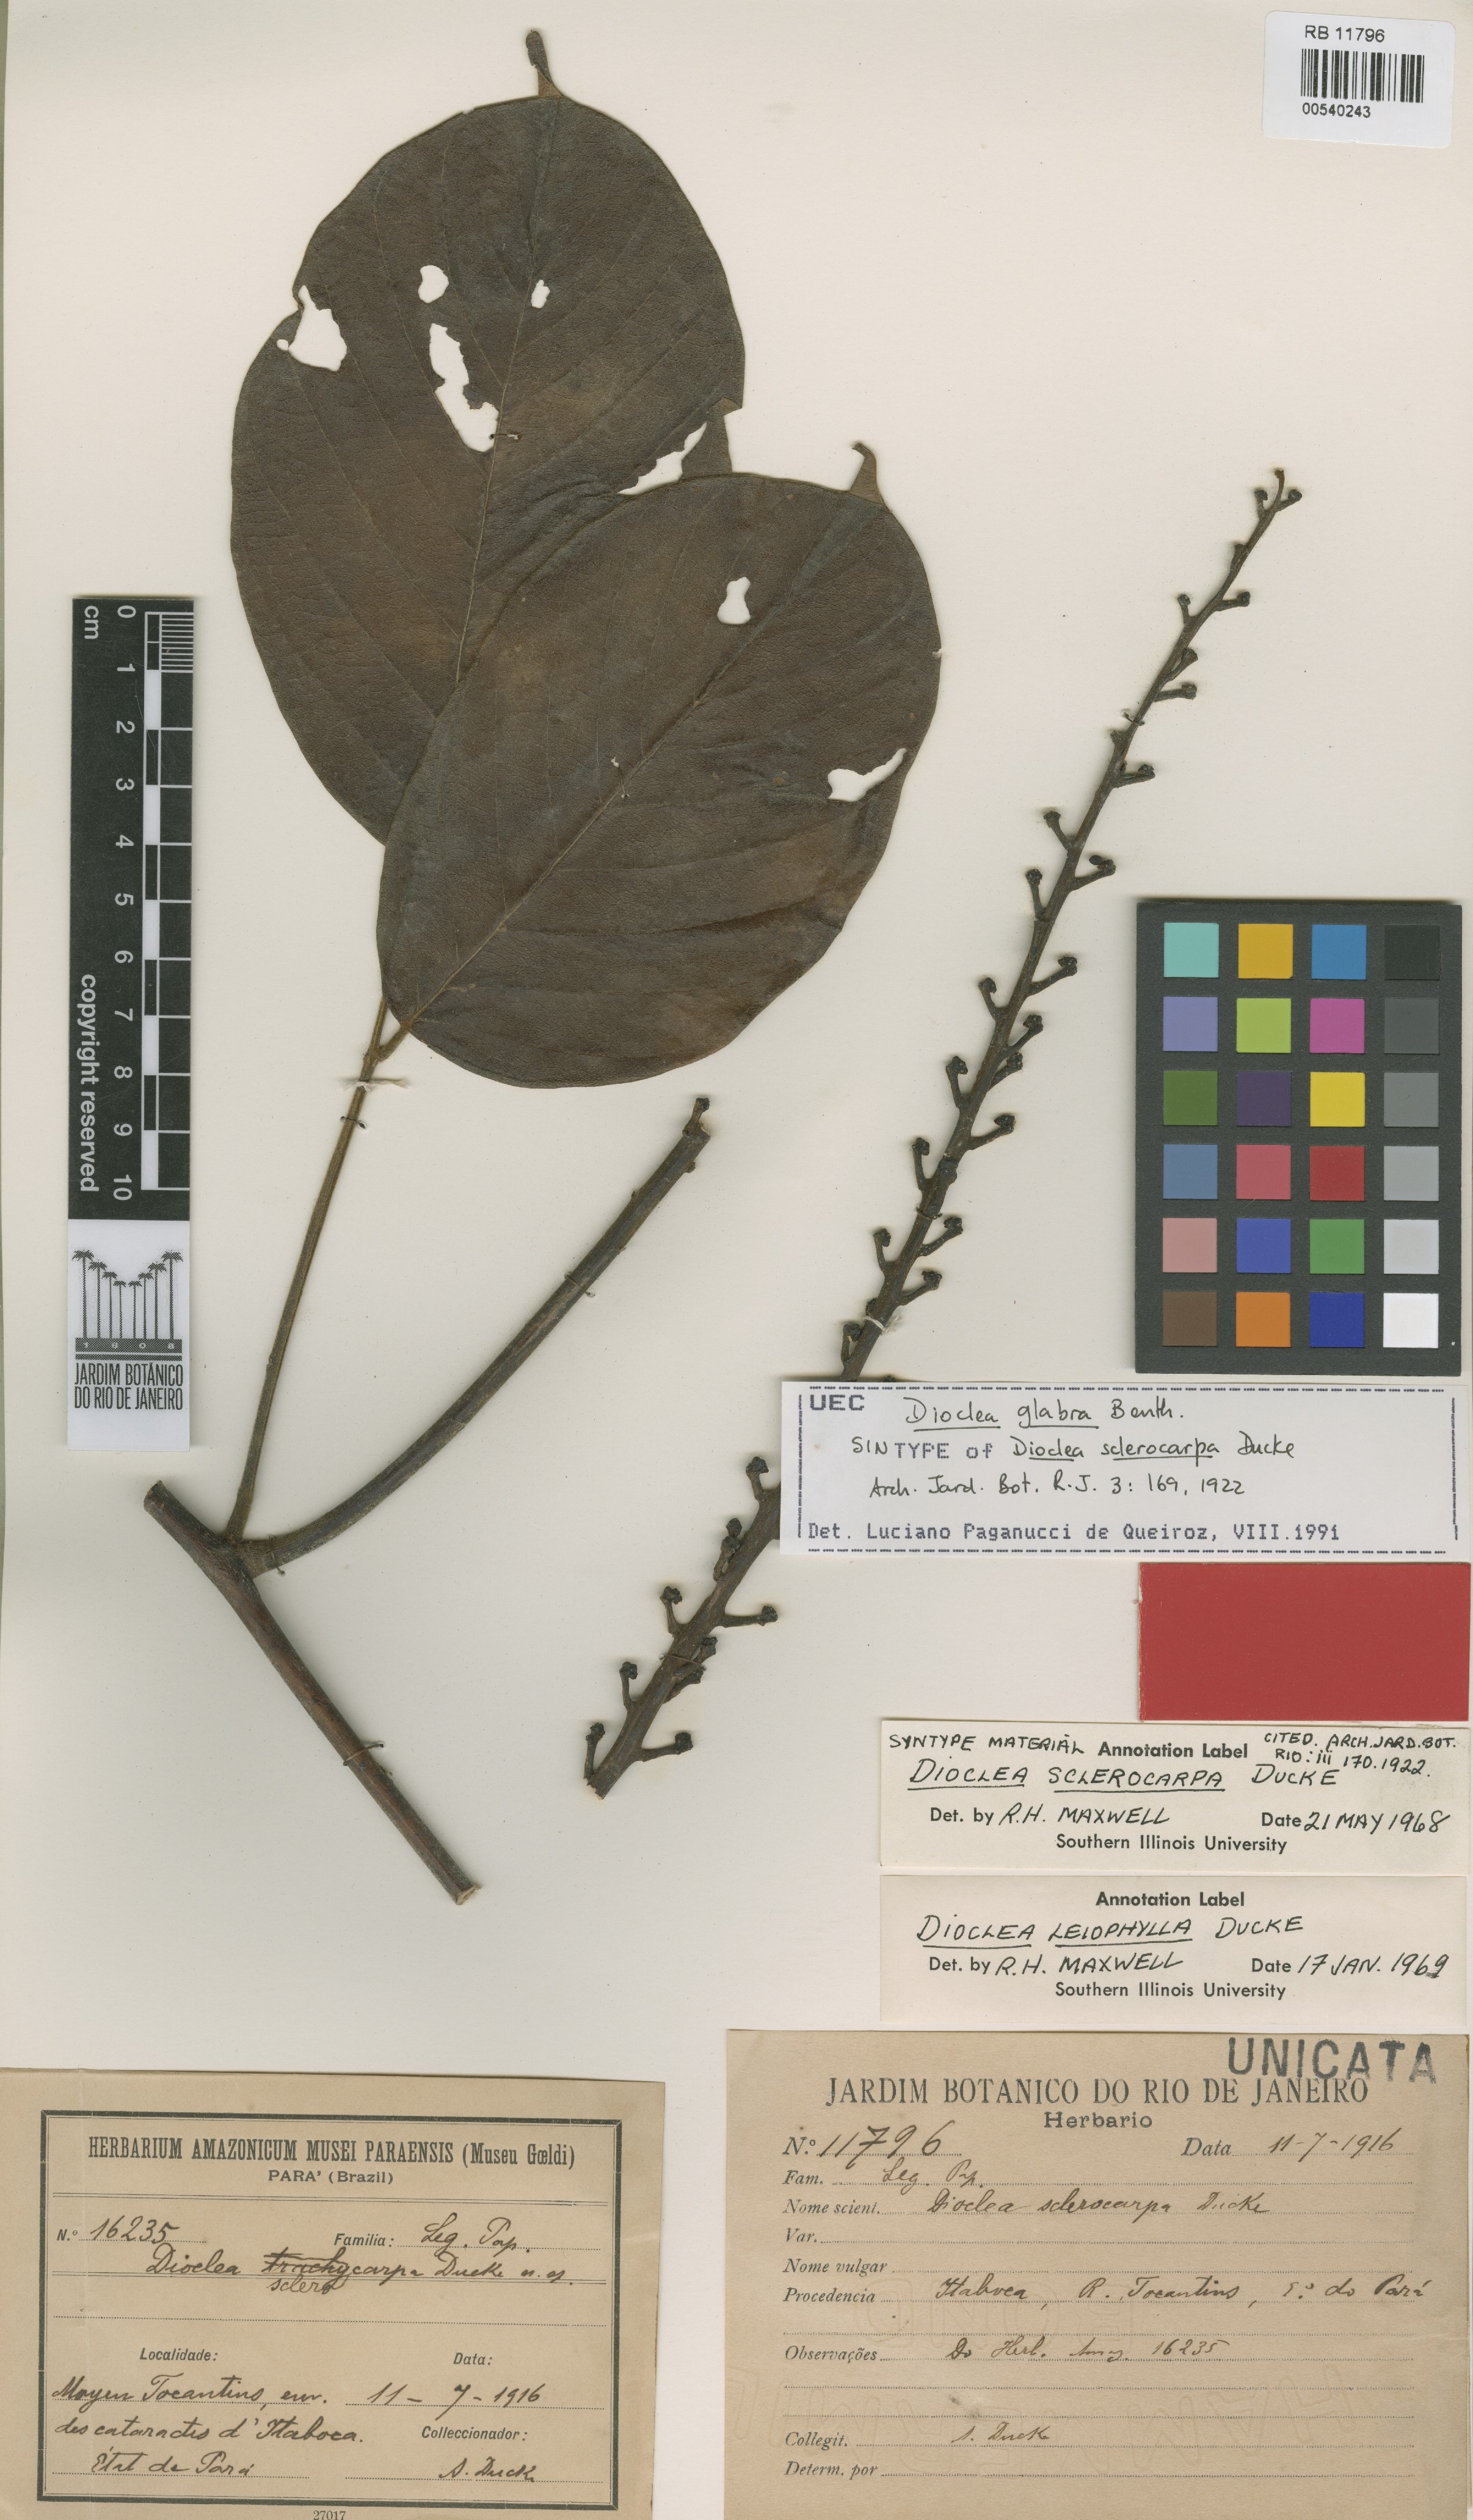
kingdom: Plantae
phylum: Tracheophyta
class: Magnoliopsida
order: Fabales
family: Fabaceae
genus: Macropsychanthus
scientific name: Macropsychanthus sclerocarpus
